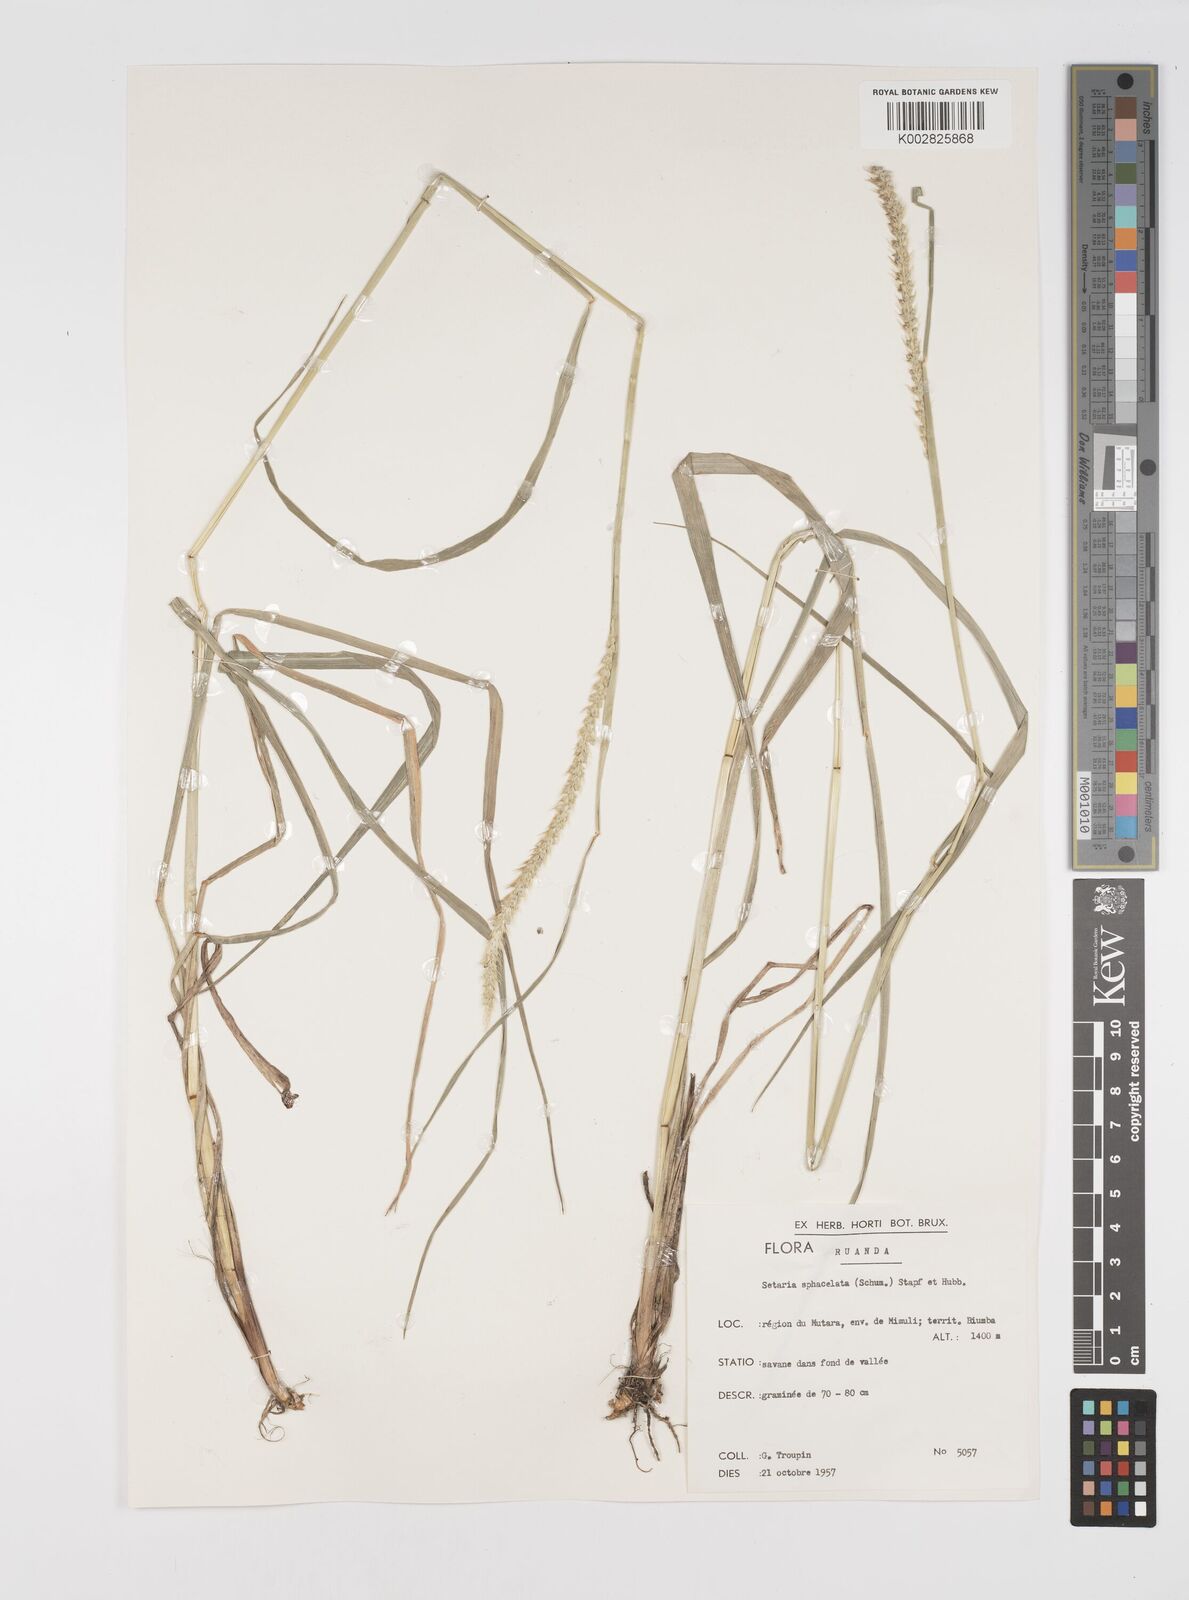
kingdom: Plantae
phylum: Tracheophyta
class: Liliopsida
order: Poales
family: Poaceae
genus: Setaria
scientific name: Setaria sphacelata
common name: African bristlegrass
